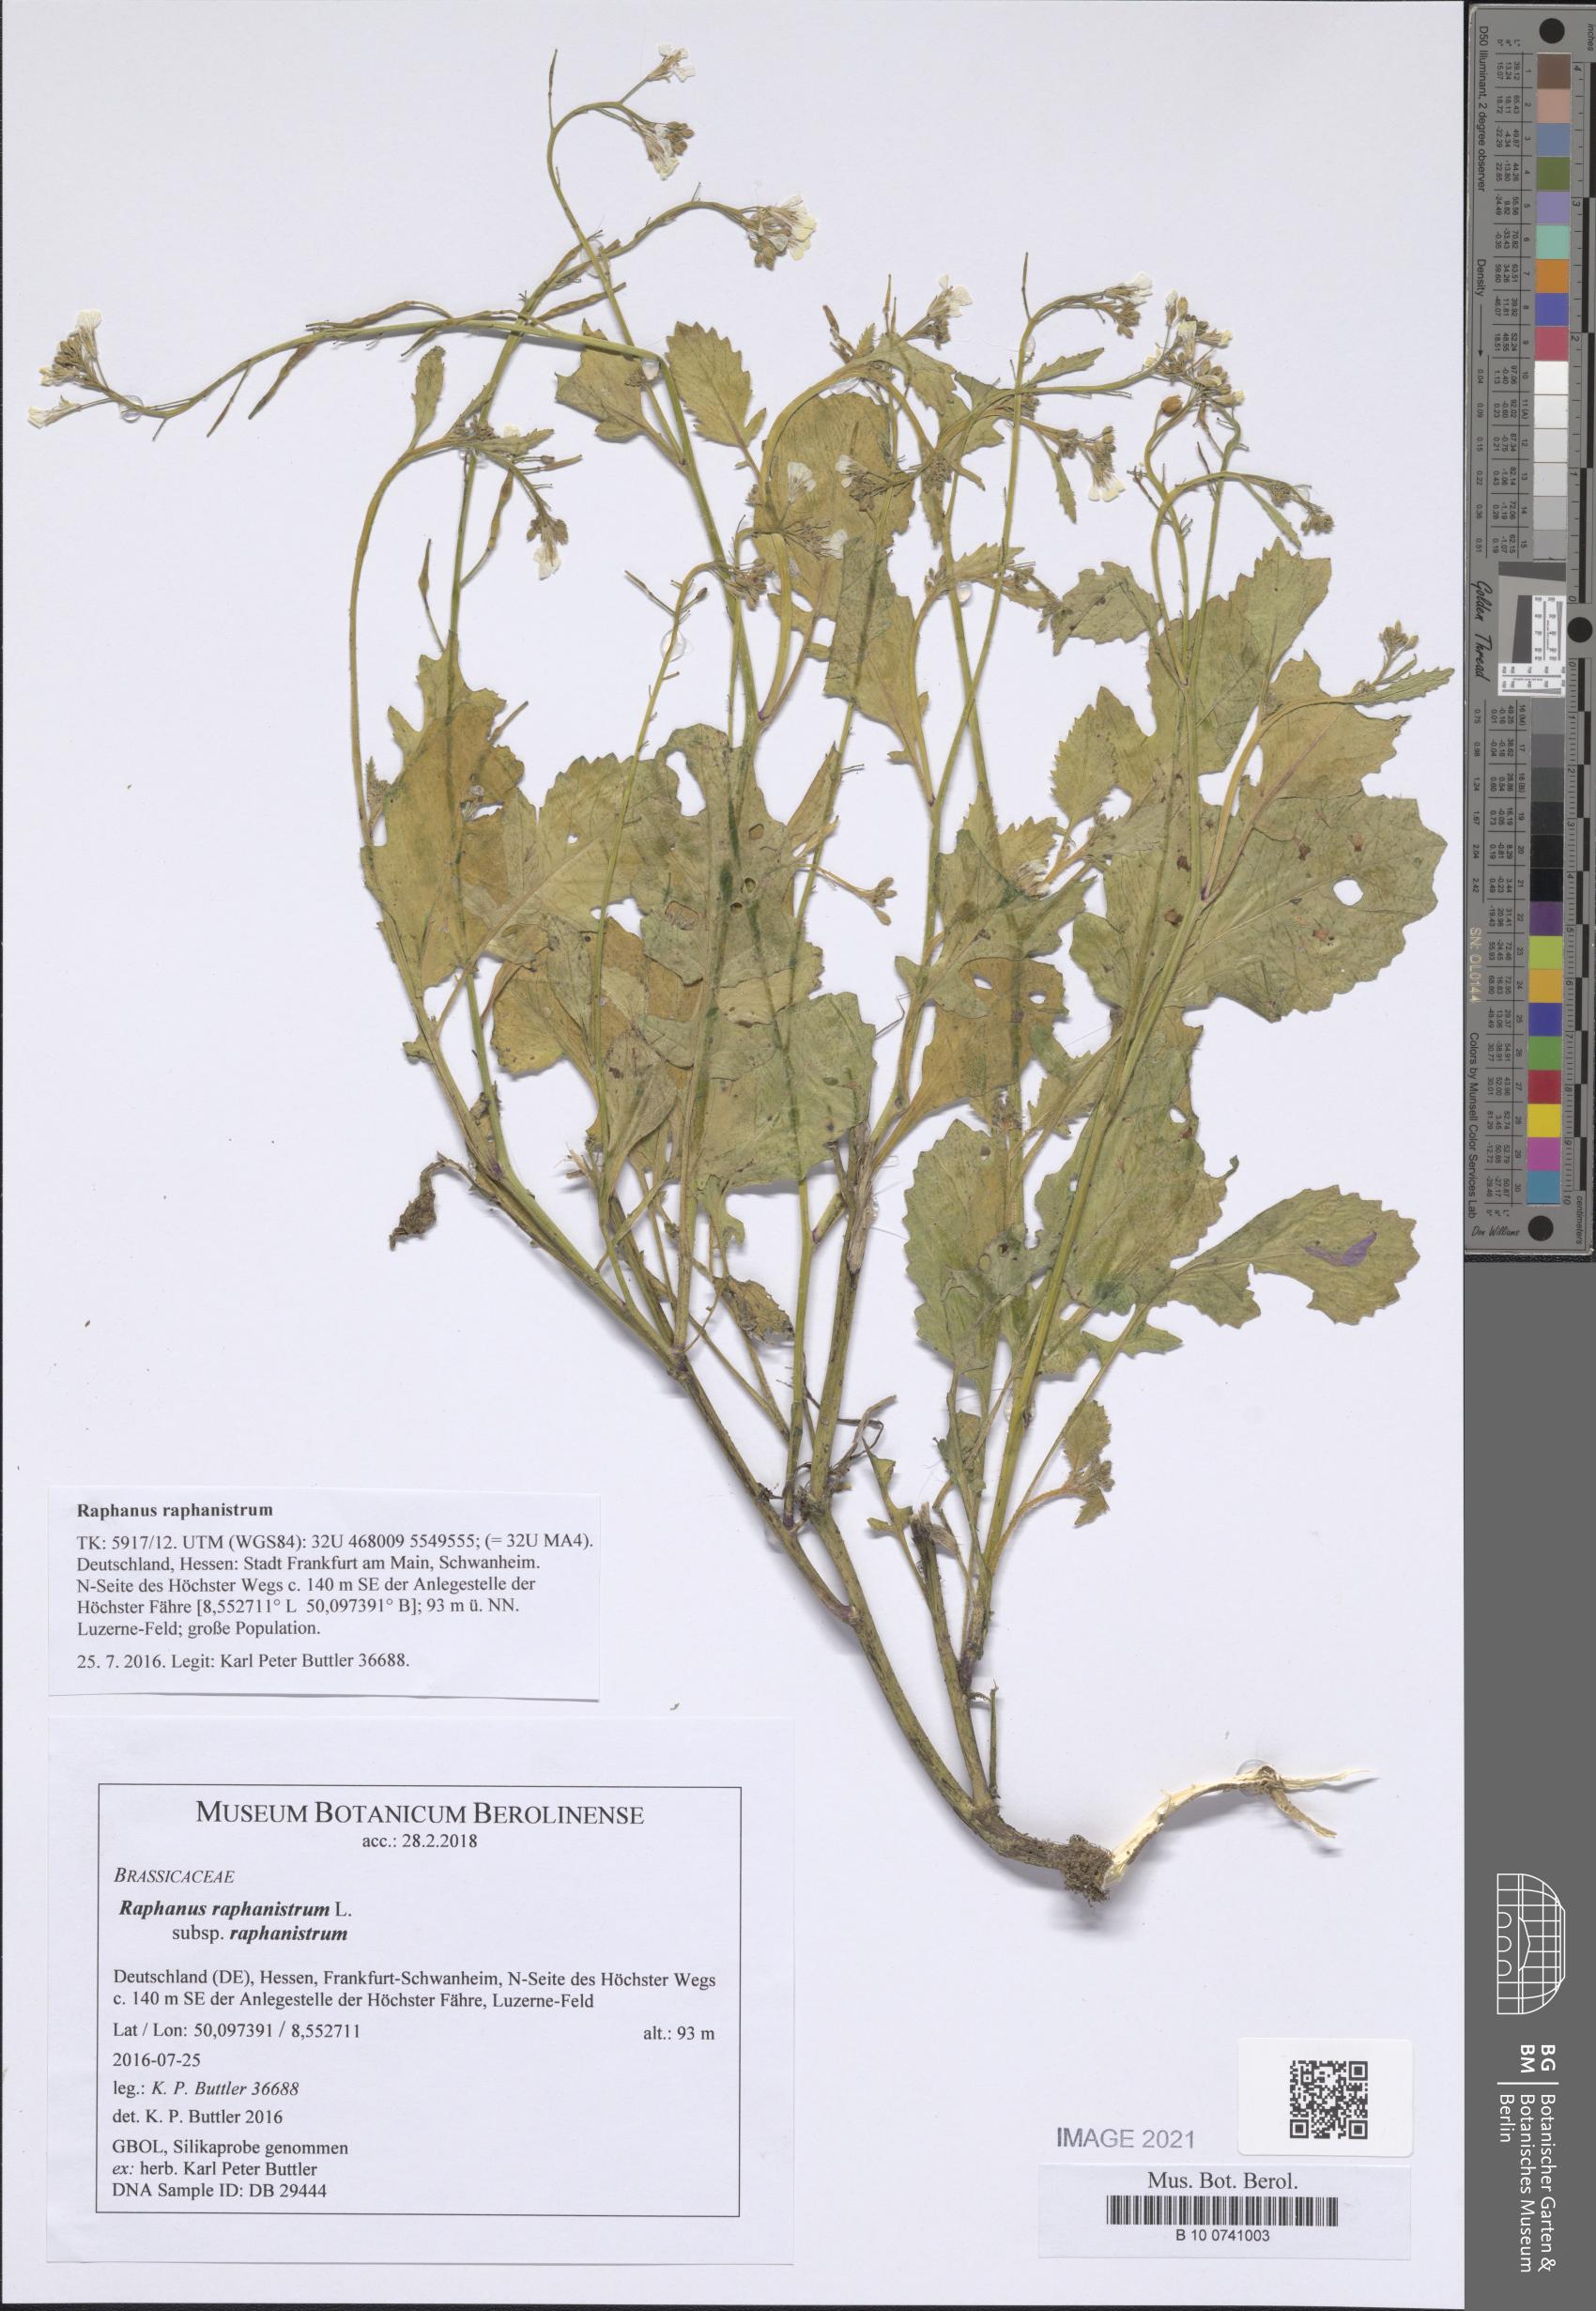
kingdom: Plantae
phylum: Tracheophyta
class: Magnoliopsida
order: Brassicales
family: Brassicaceae
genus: Raphanus
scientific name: Raphanus raphanistrum
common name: Wild radish
